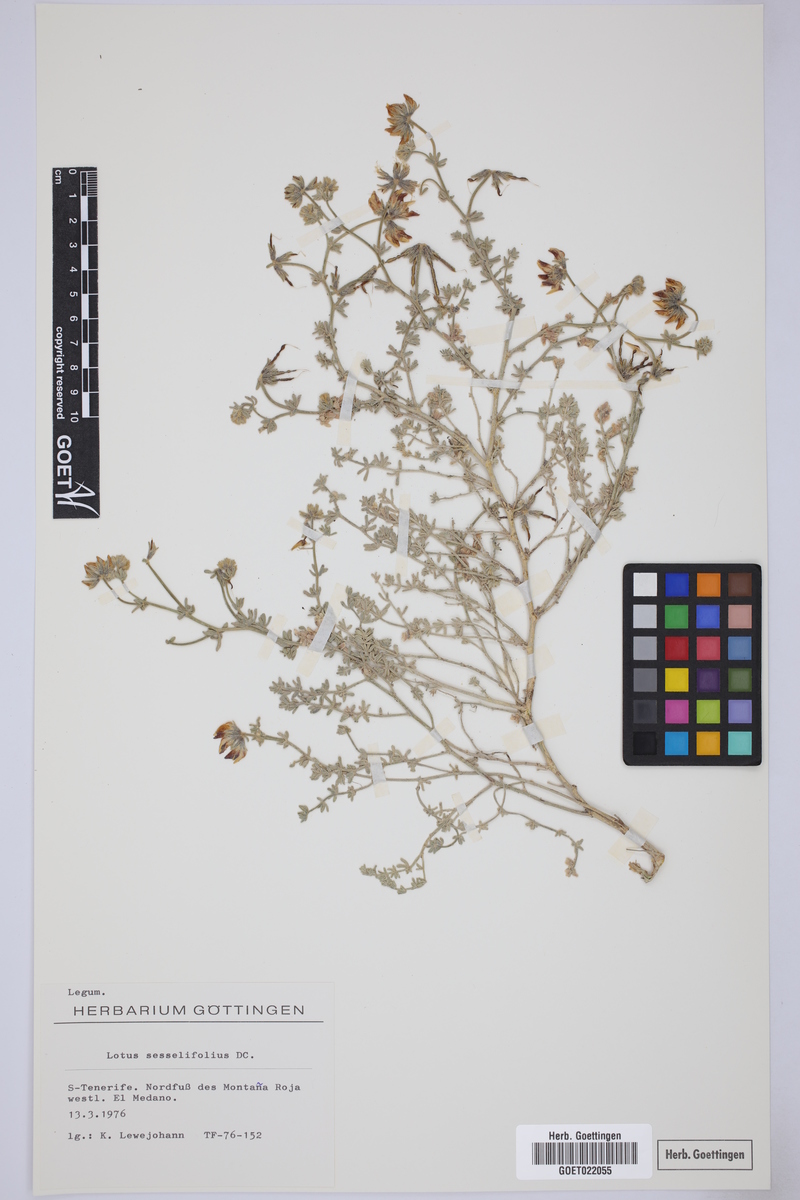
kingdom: Plantae
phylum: Tracheophyta
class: Magnoliopsida
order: Fabales
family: Fabaceae
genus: Lotus
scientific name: Lotus sessilifolius
